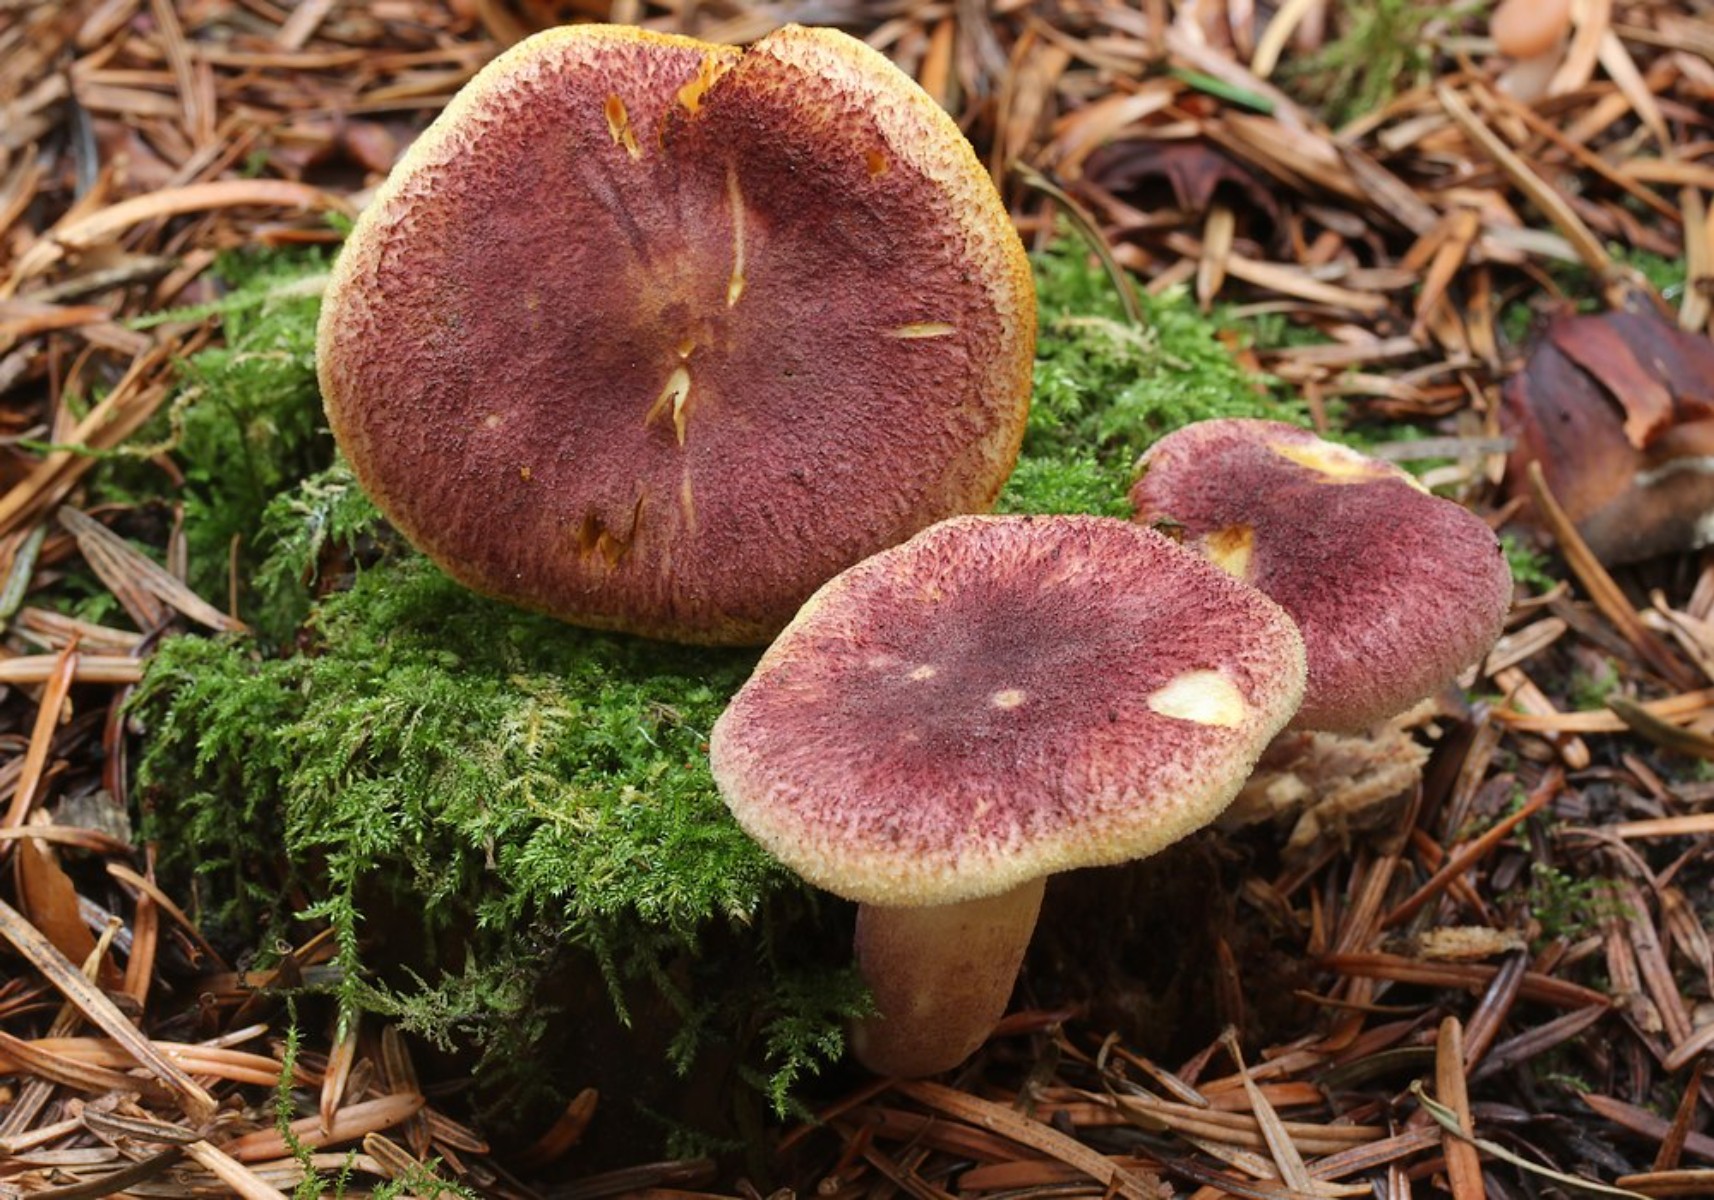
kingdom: Fungi
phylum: Basidiomycota
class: Agaricomycetes
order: Agaricales
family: Tricholomataceae
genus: Tricholomopsis
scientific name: Tricholomopsis rutilans
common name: purpur-væbnerhat
